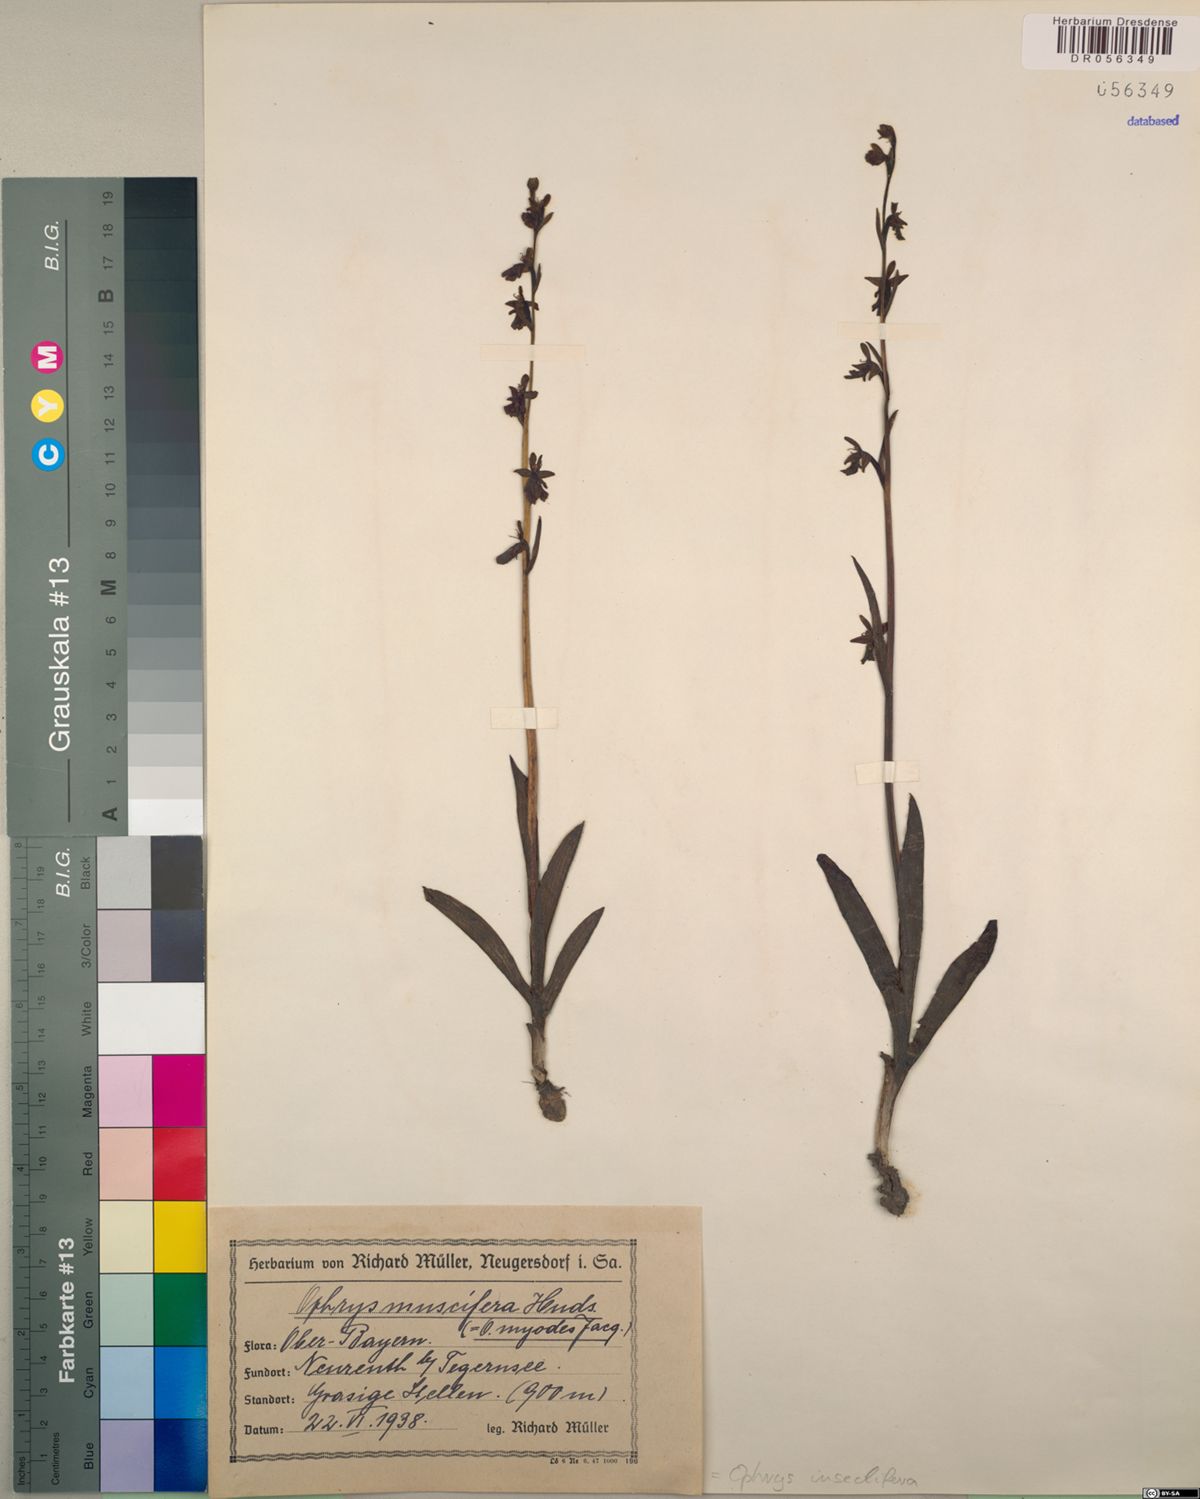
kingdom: Plantae
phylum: Tracheophyta
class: Liliopsida
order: Asparagales
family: Orchidaceae
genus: Ophrys
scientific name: Ophrys insectifera
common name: Fly orchid
